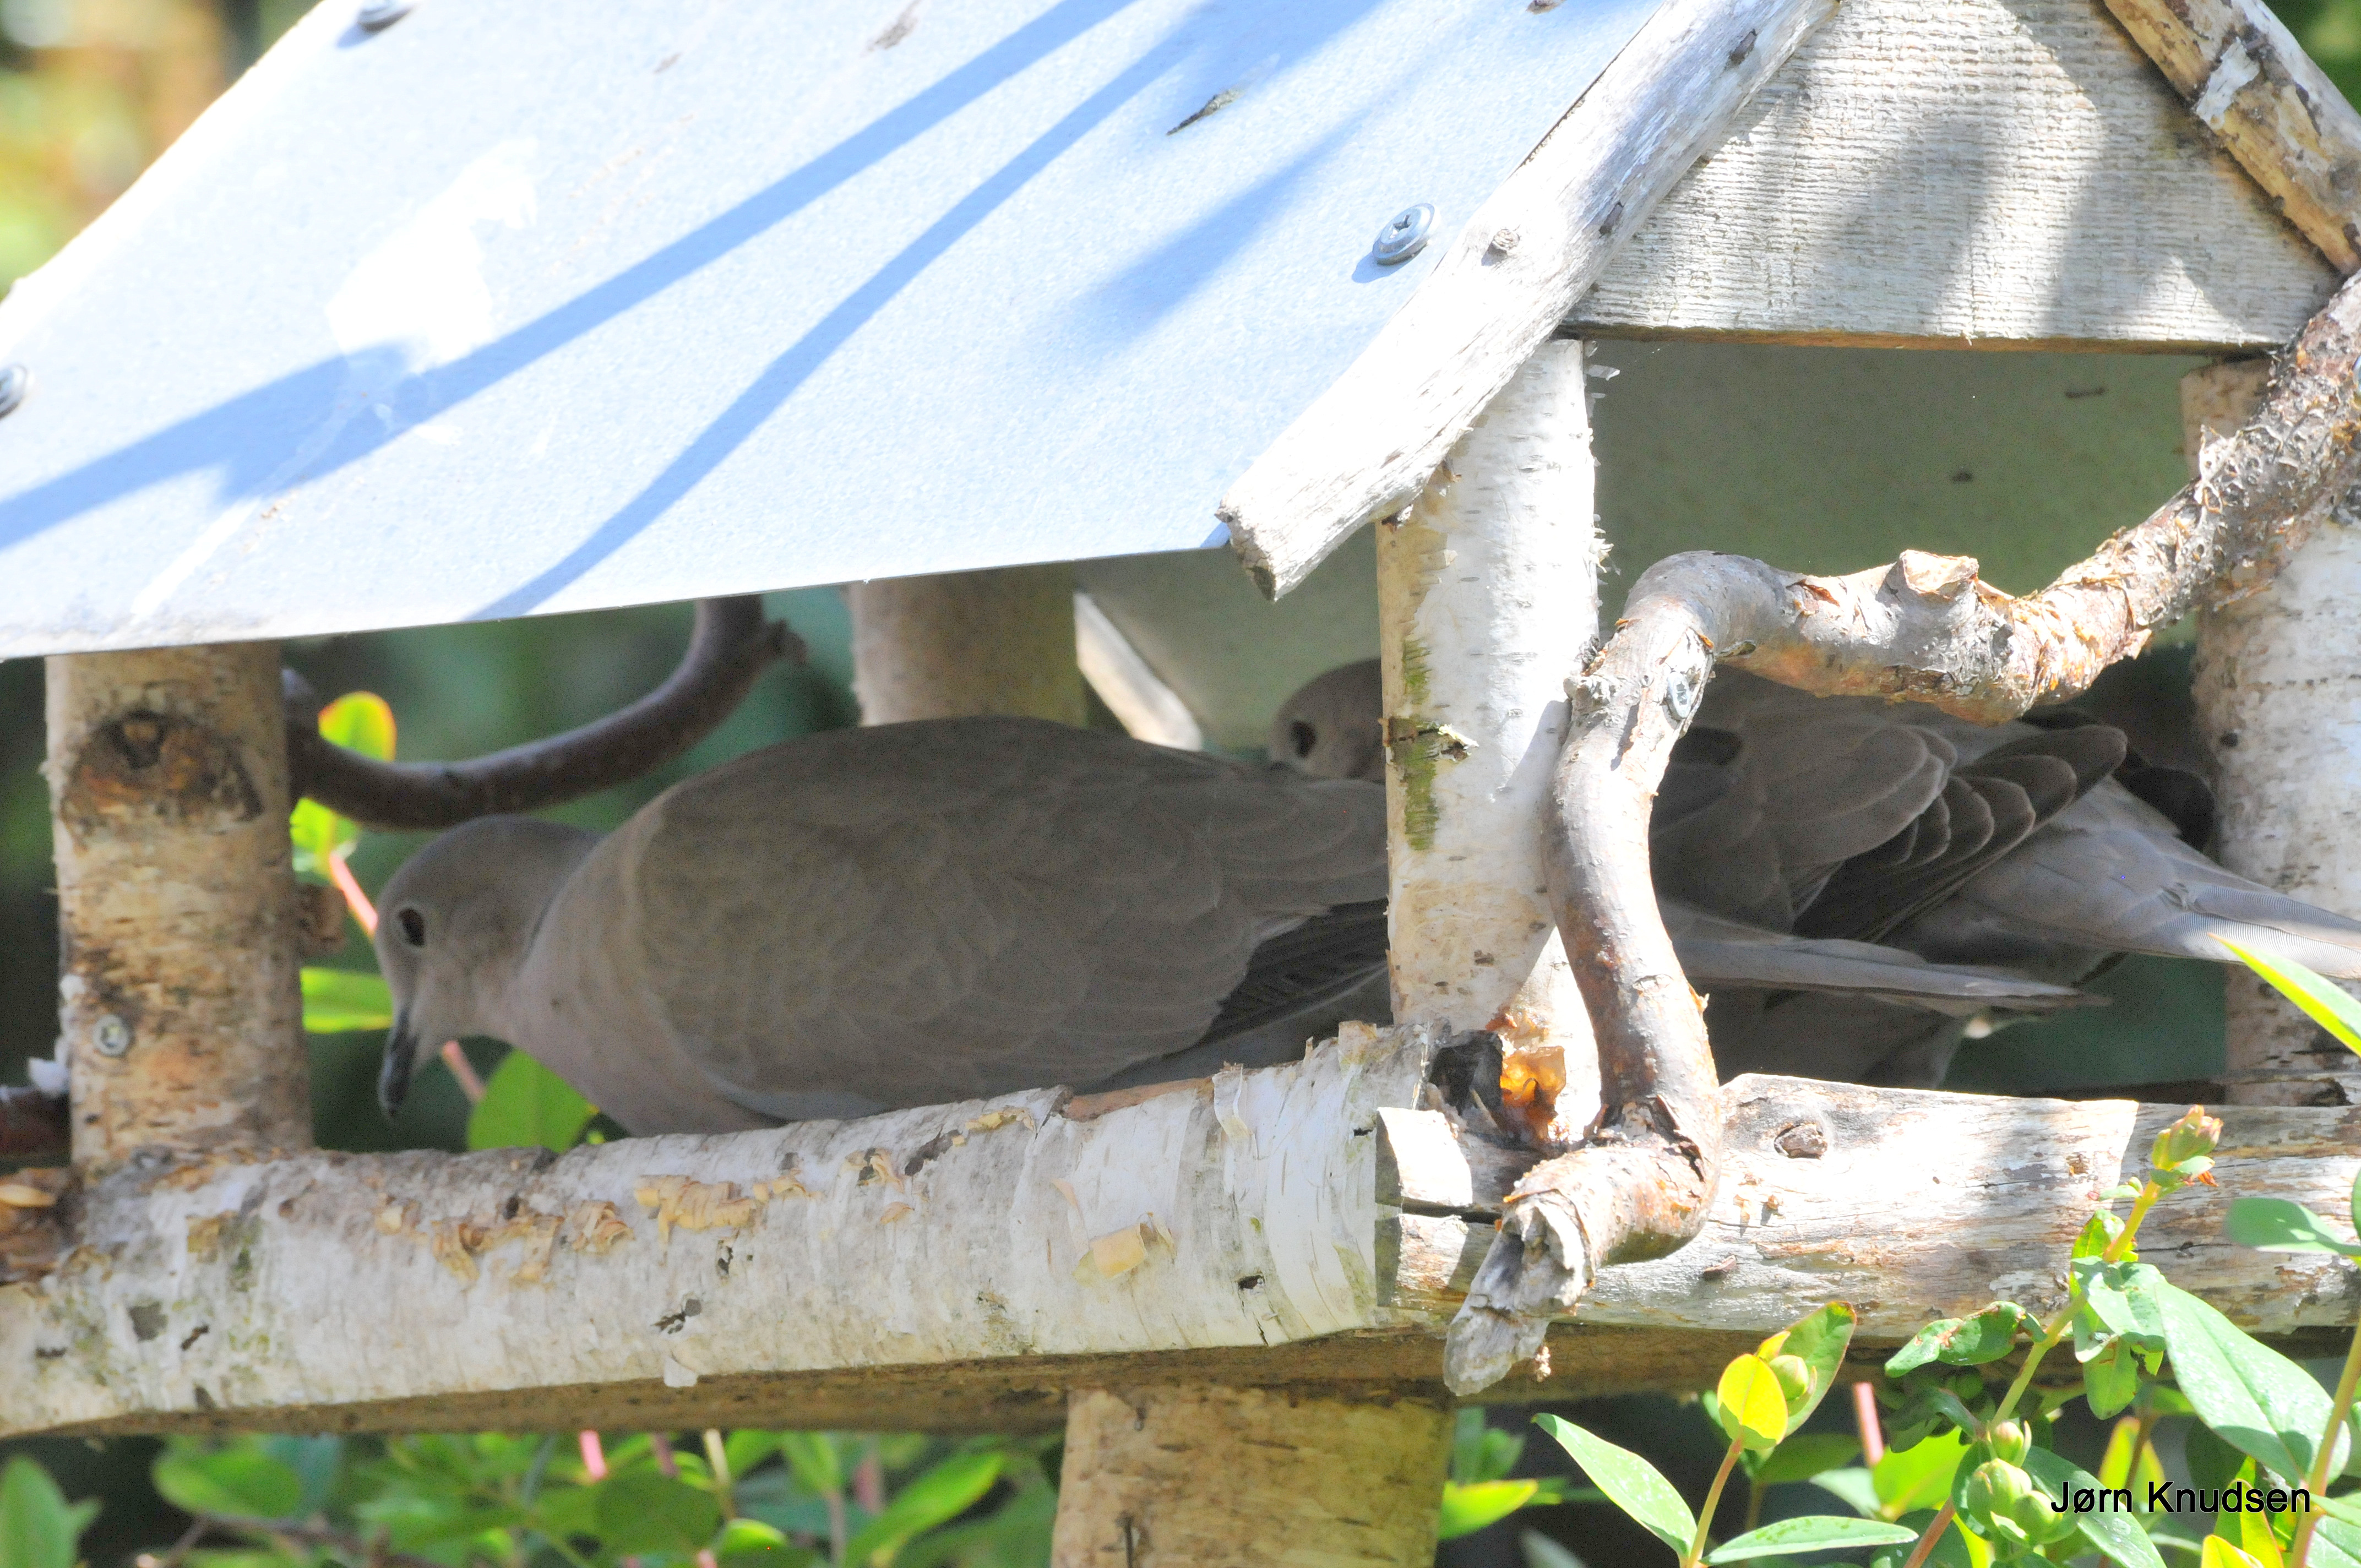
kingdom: Animalia
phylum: Chordata
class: Aves
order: Columbiformes
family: Columbidae
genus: Streptopelia
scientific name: Streptopelia decaocto
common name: Tyrkerdue
